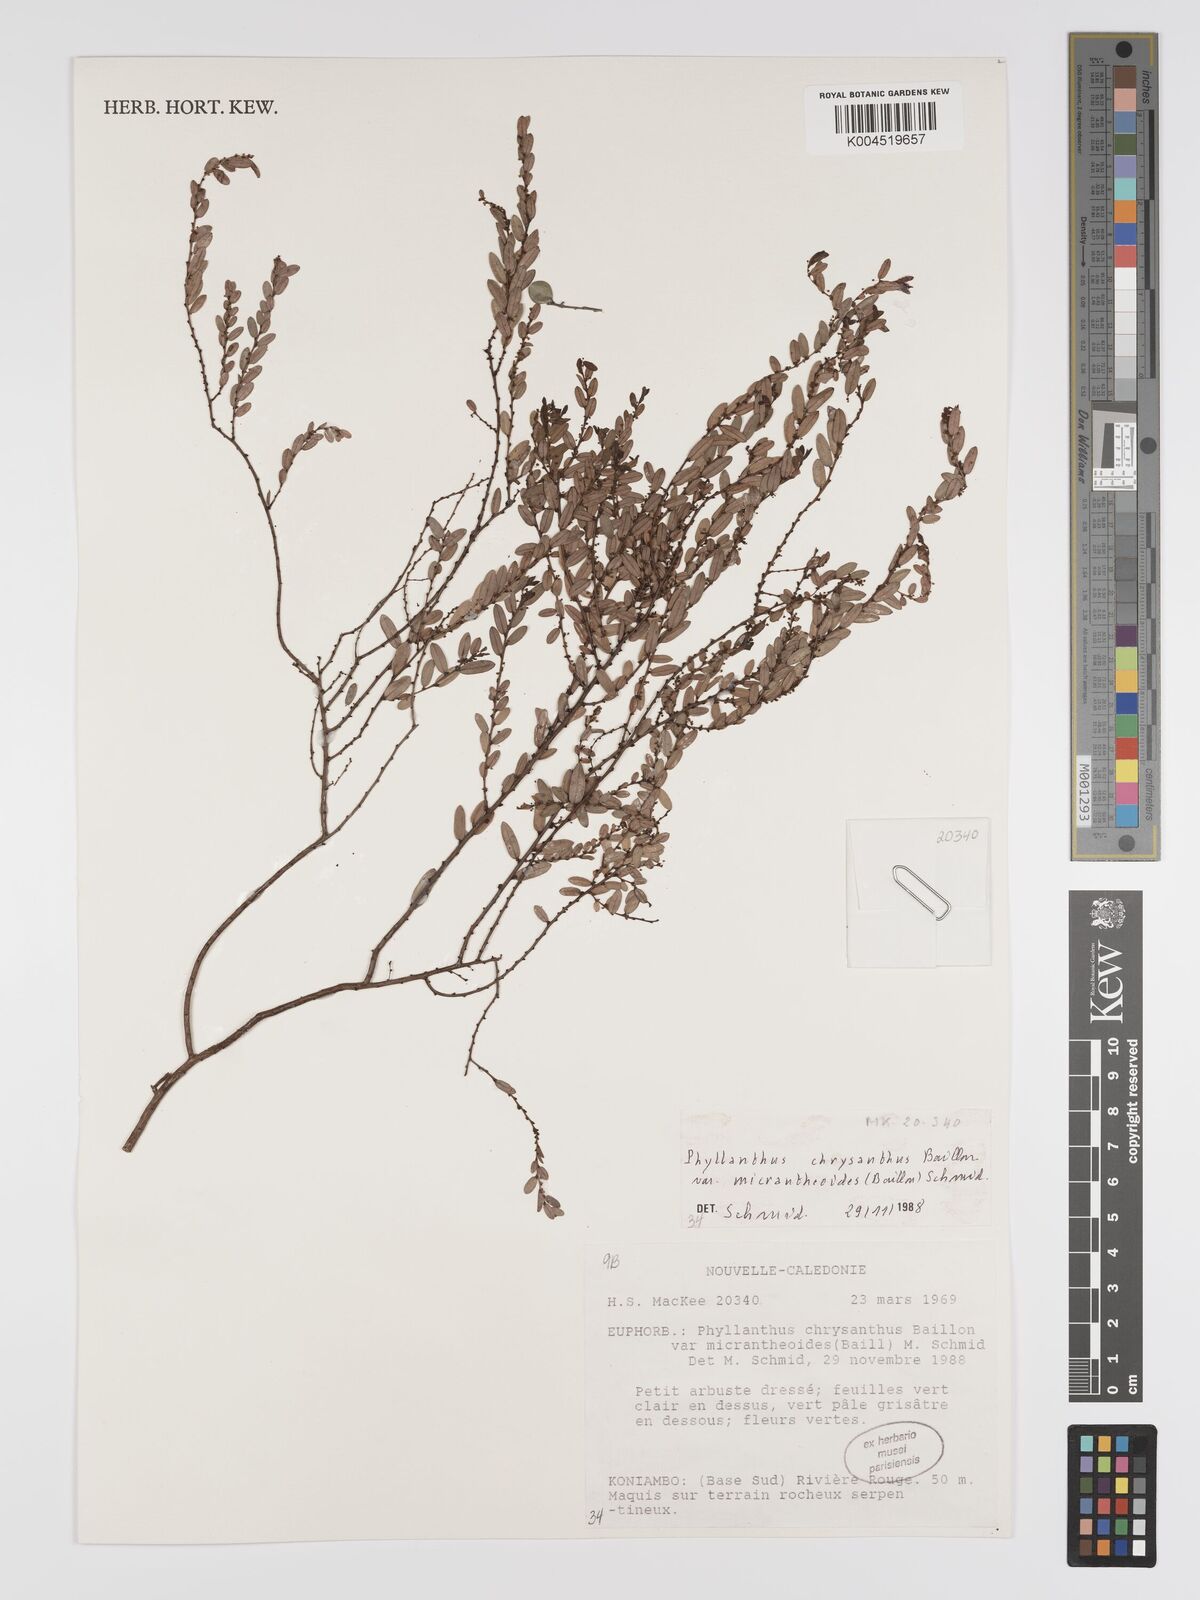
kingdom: Plantae
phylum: Tracheophyta
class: Magnoliopsida
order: Malpighiales
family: Phyllanthaceae
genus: Phyllanthus
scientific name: Phyllanthus chrysanthus
